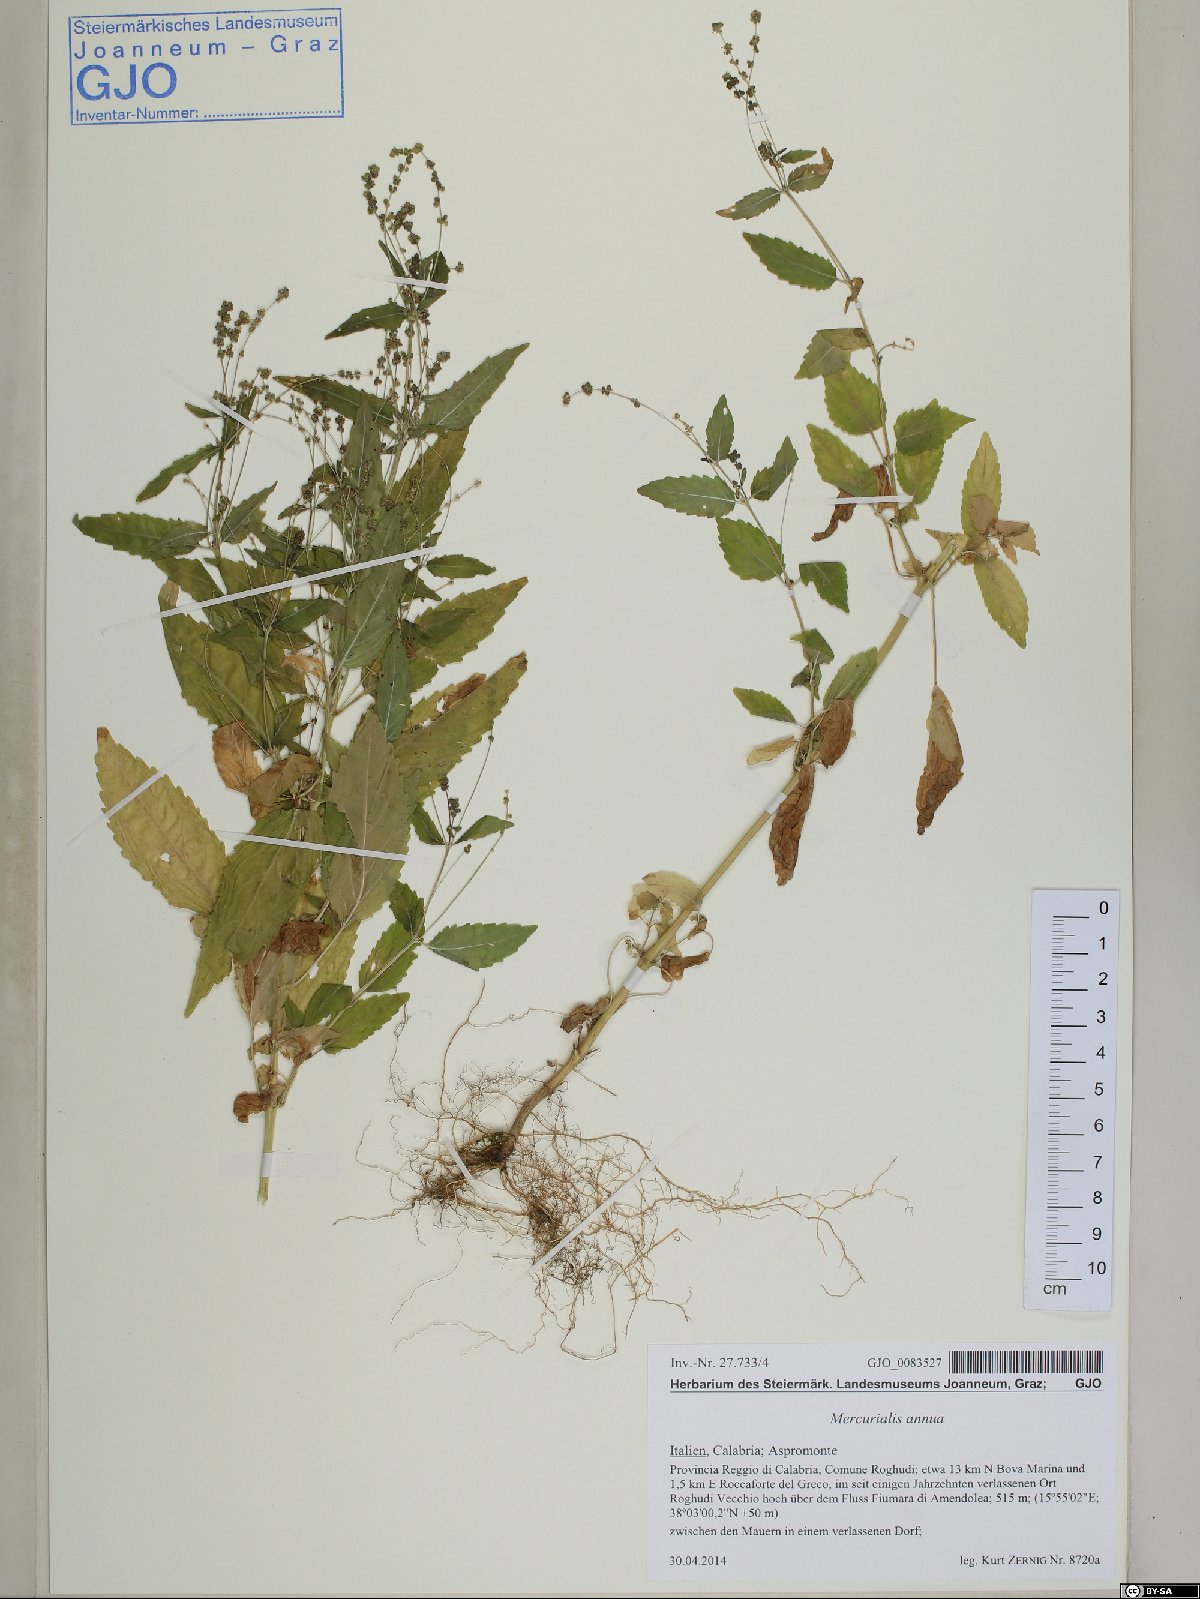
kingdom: Plantae
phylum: Tracheophyta
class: Magnoliopsida
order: Malpighiales
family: Euphorbiaceae
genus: Mercurialis
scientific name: Mercurialis annua
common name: Annual mercury
